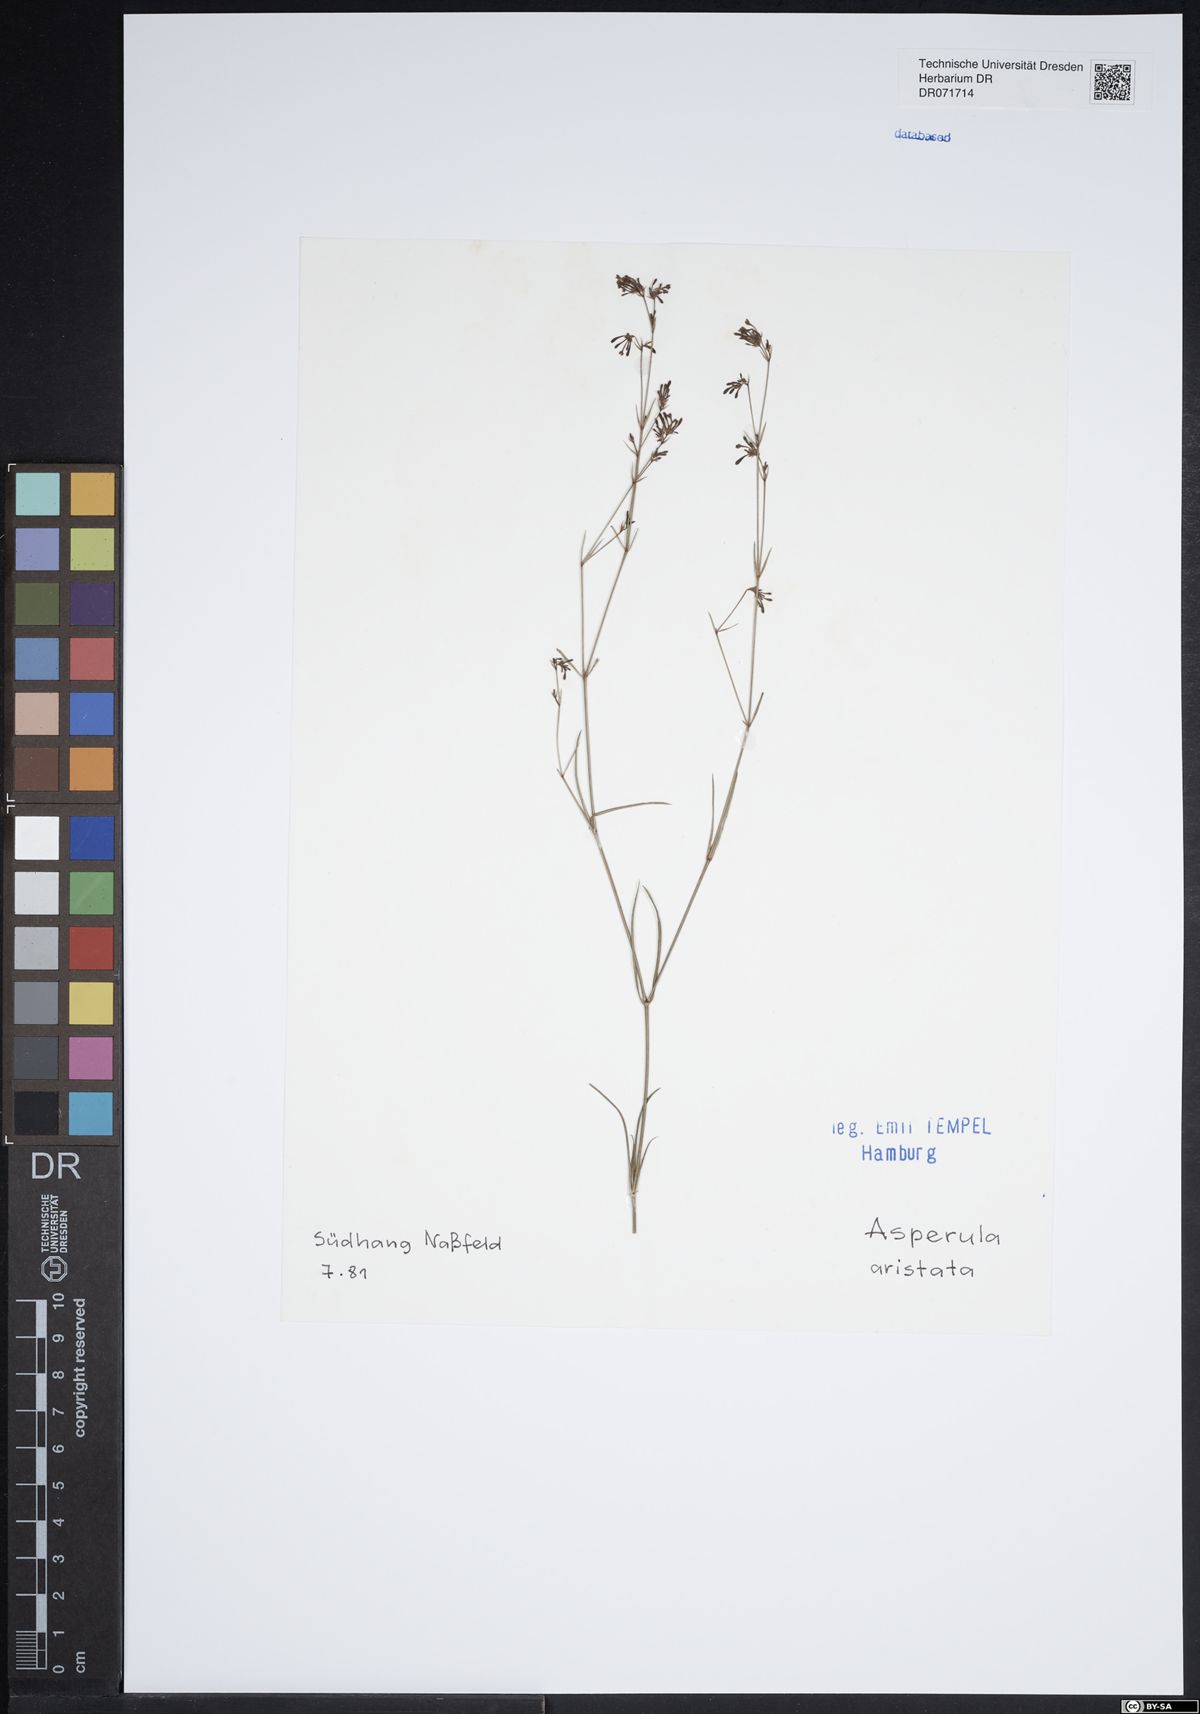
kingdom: Plantae
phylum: Tracheophyta
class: Magnoliopsida
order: Gentianales
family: Rubiaceae
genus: Cynanchica
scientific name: Cynanchica aristata
